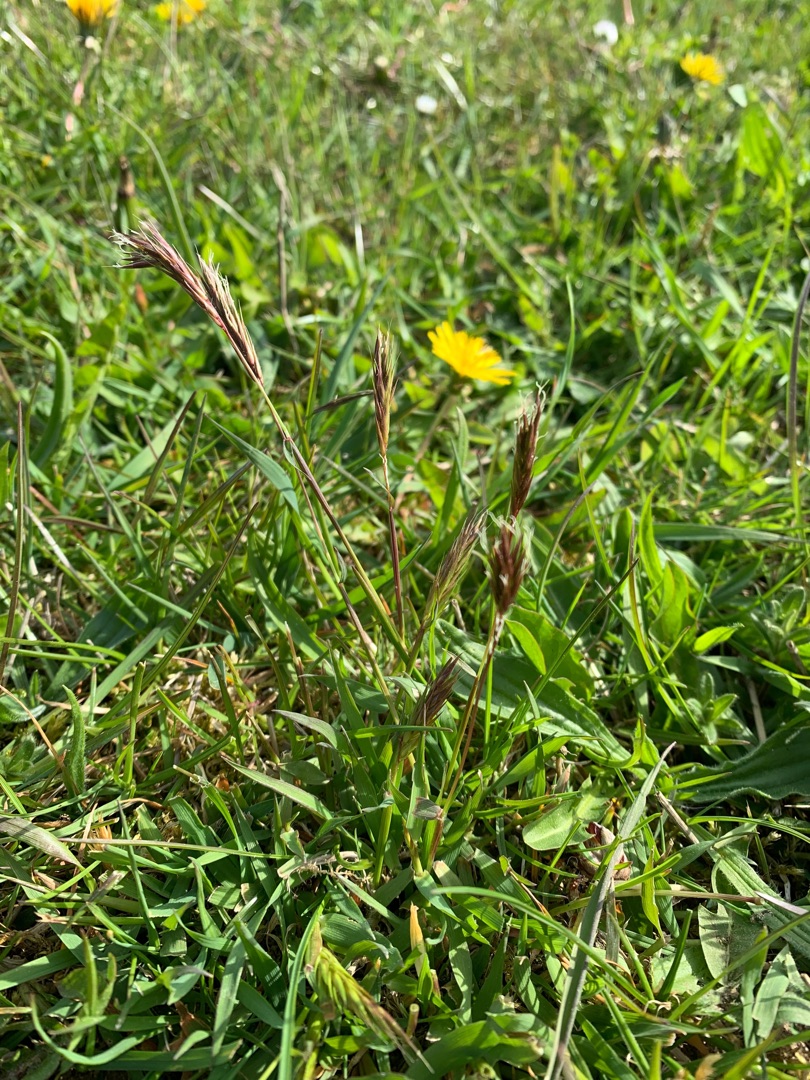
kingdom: Plantae
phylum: Tracheophyta
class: Liliopsida
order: Poales
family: Poaceae
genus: Anthoxanthum
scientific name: Anthoxanthum odoratum
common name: Vellugtende gulaks
